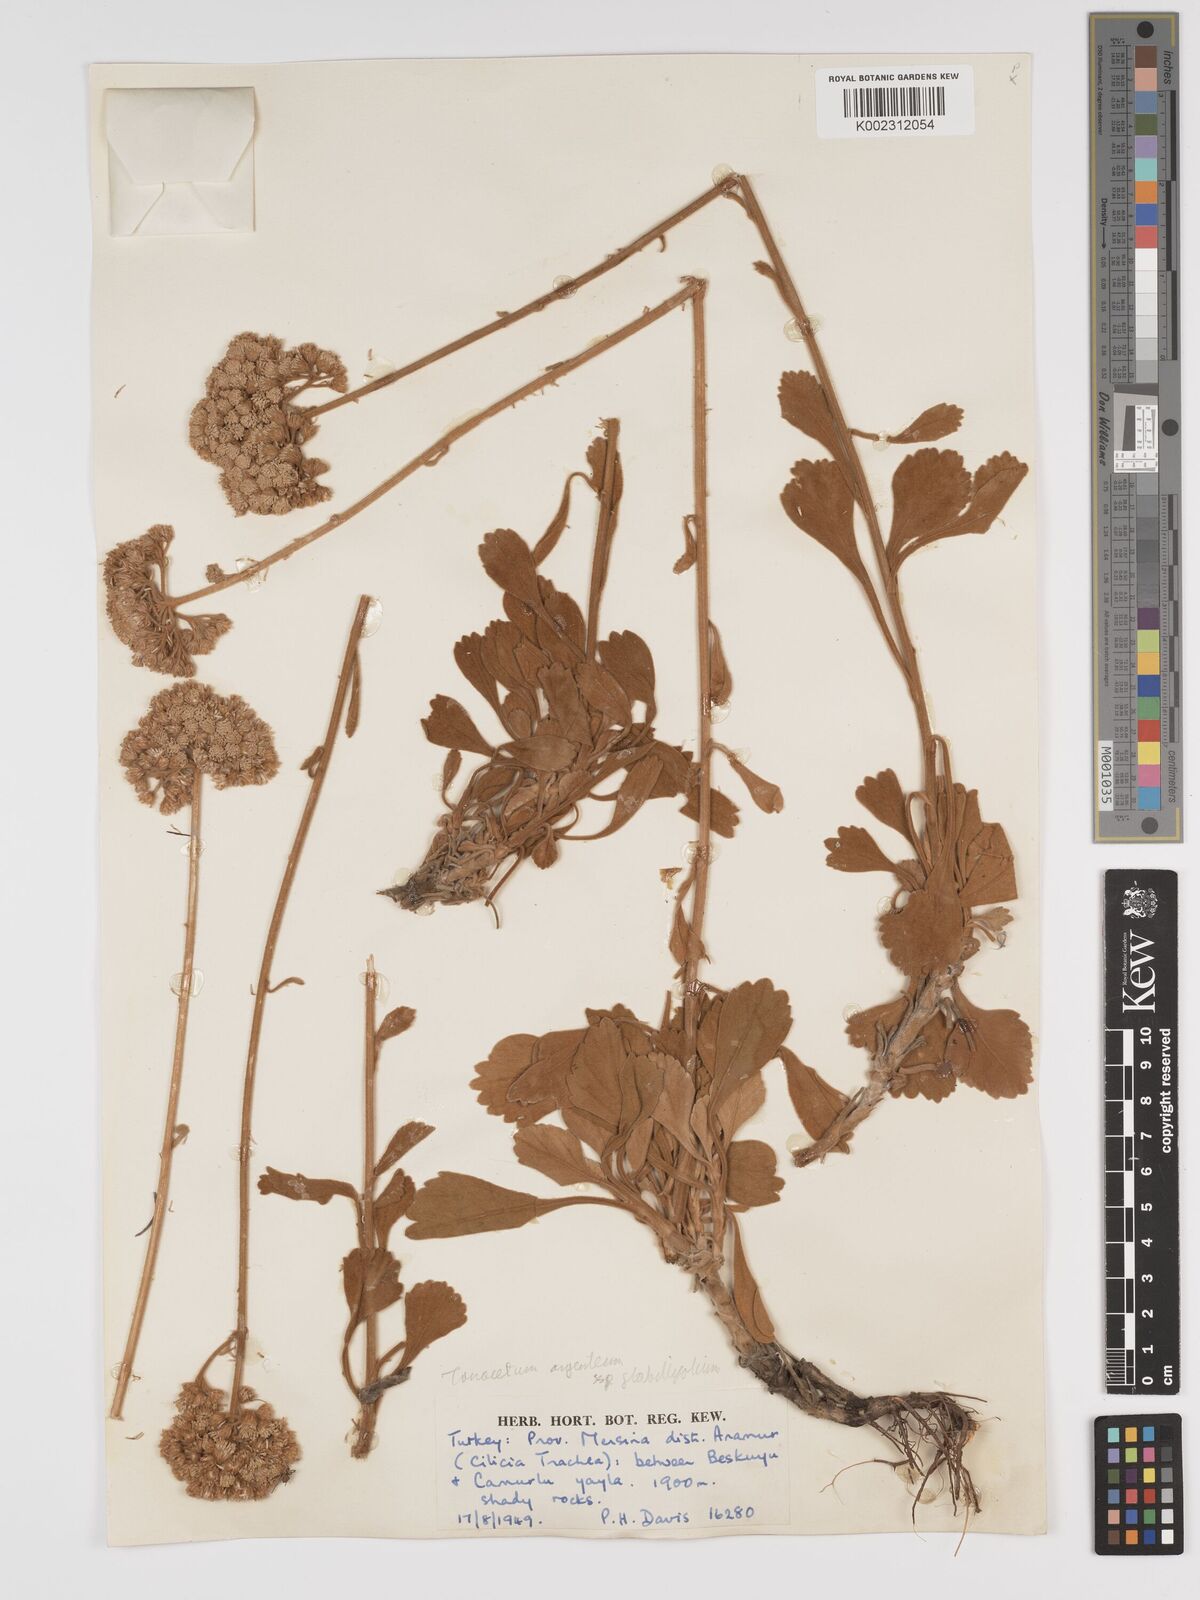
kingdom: Plantae
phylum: Tracheophyta
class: Magnoliopsida
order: Asterales
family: Asteraceae
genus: Tanacetum
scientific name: Tanacetum argenteum
